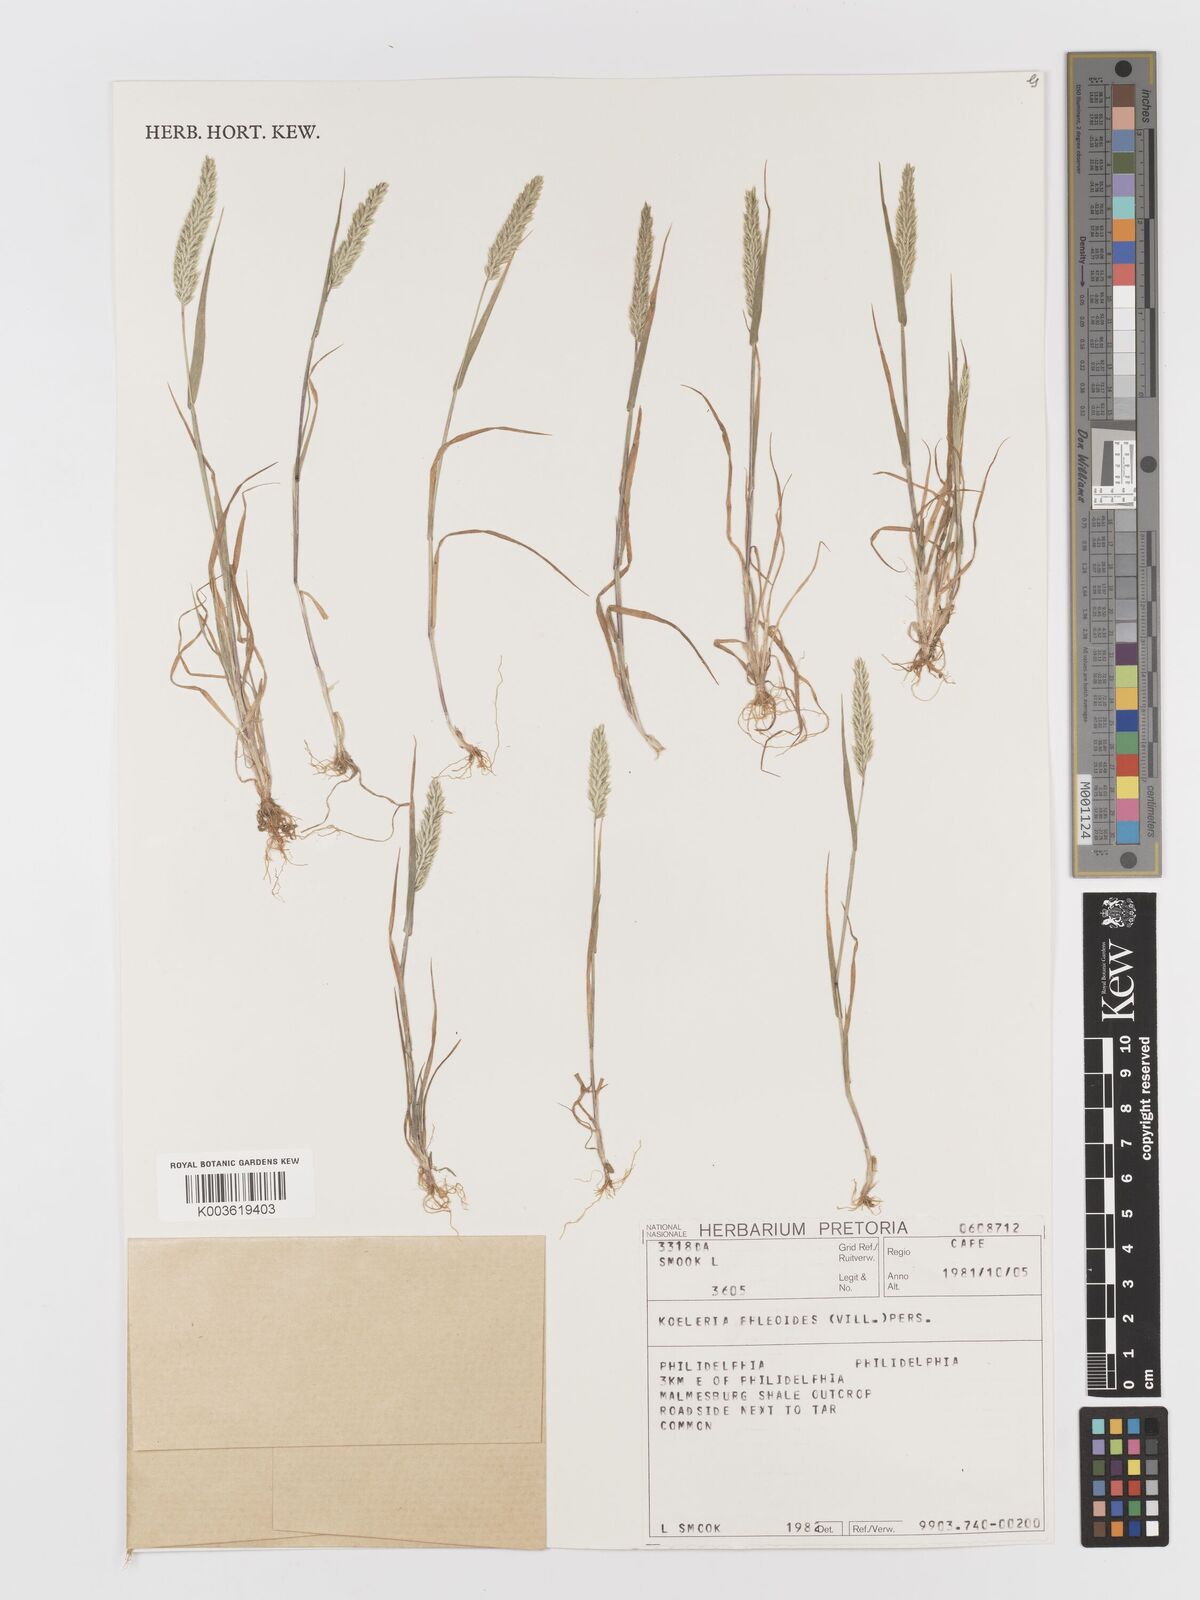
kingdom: Plantae
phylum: Tracheophyta
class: Liliopsida
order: Poales
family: Poaceae
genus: Rostraria
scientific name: Rostraria cristata
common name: Mediterranean hair-grass
